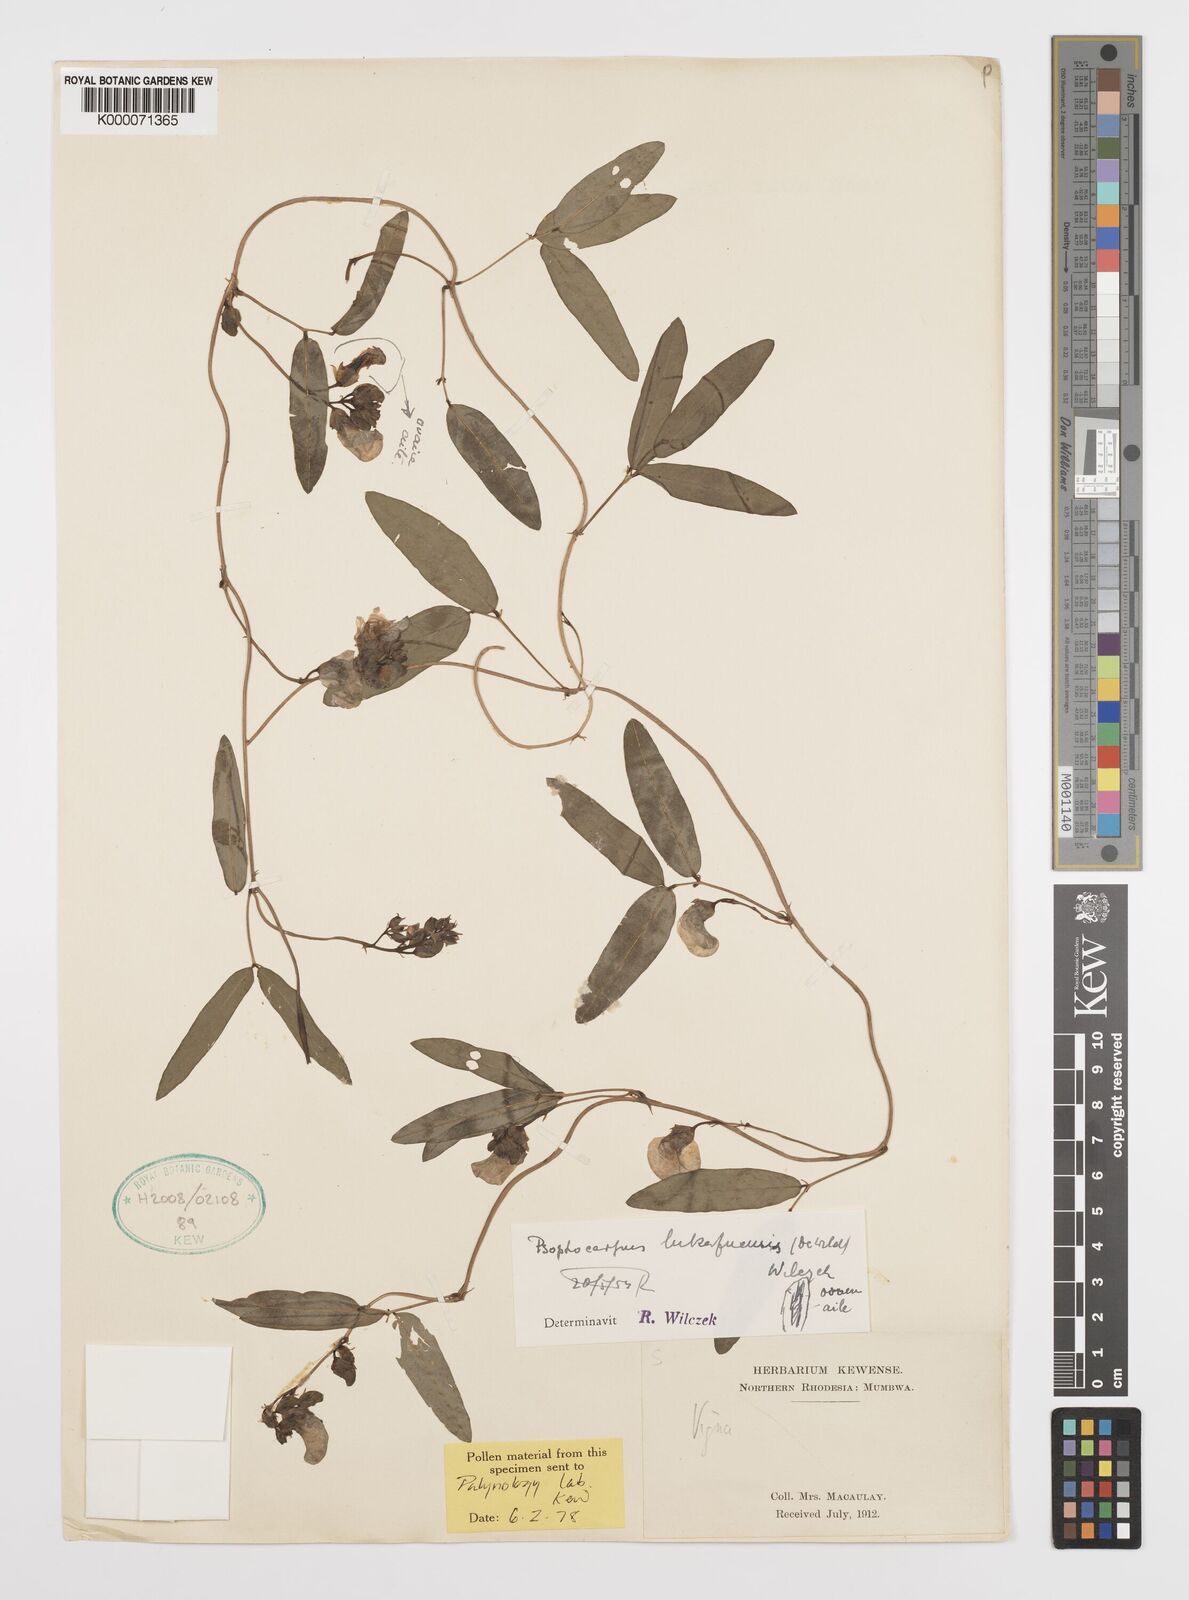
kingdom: Plantae
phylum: Tracheophyta
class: Magnoliopsida
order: Fabales
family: Fabaceae
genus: Psophocarpus
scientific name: Psophocarpus lukafuensis
